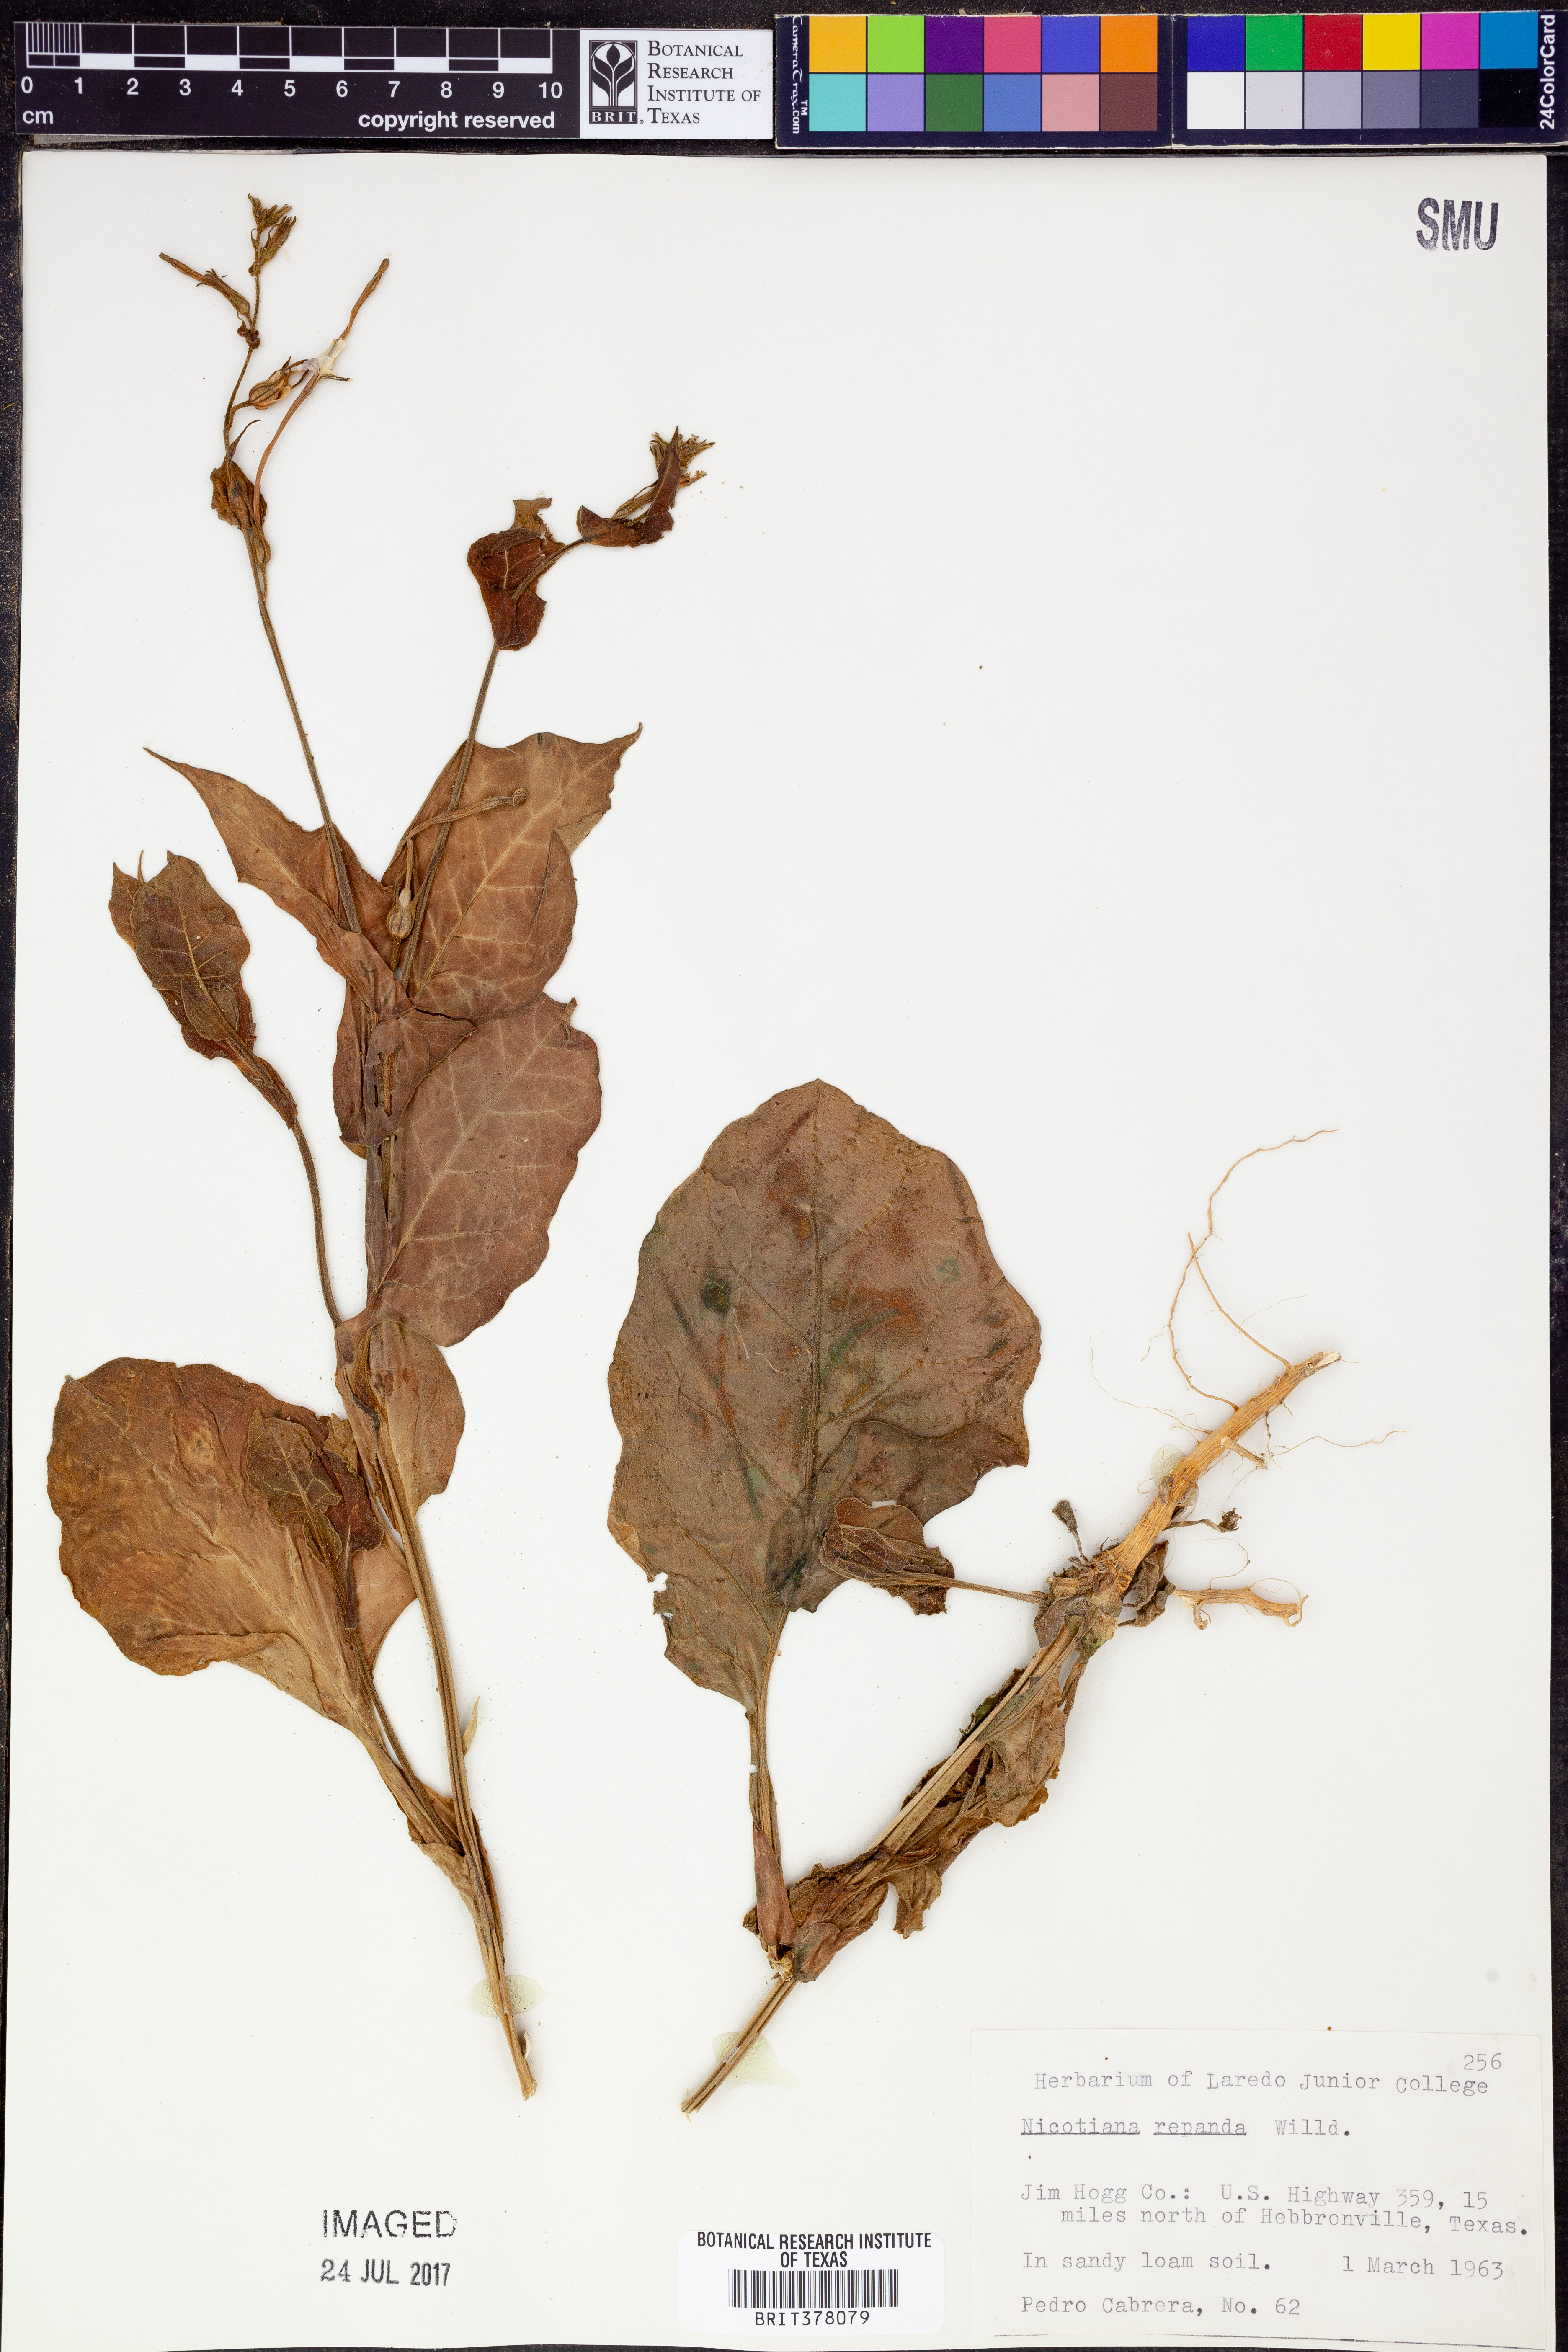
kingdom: Plantae
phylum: Tracheophyta
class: Magnoliopsida
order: Solanales
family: Solanaceae
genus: Nicotiana
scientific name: Nicotiana repanda
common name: Fiddle-leaf tobacco
